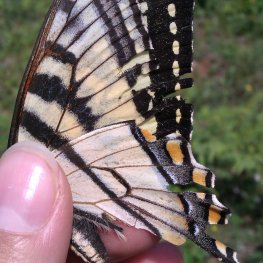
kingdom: Animalia
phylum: Arthropoda
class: Insecta
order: Lepidoptera
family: Papilionidae
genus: Pterourus
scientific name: Pterourus canadensis
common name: Canadian Tiger Swallowtail
